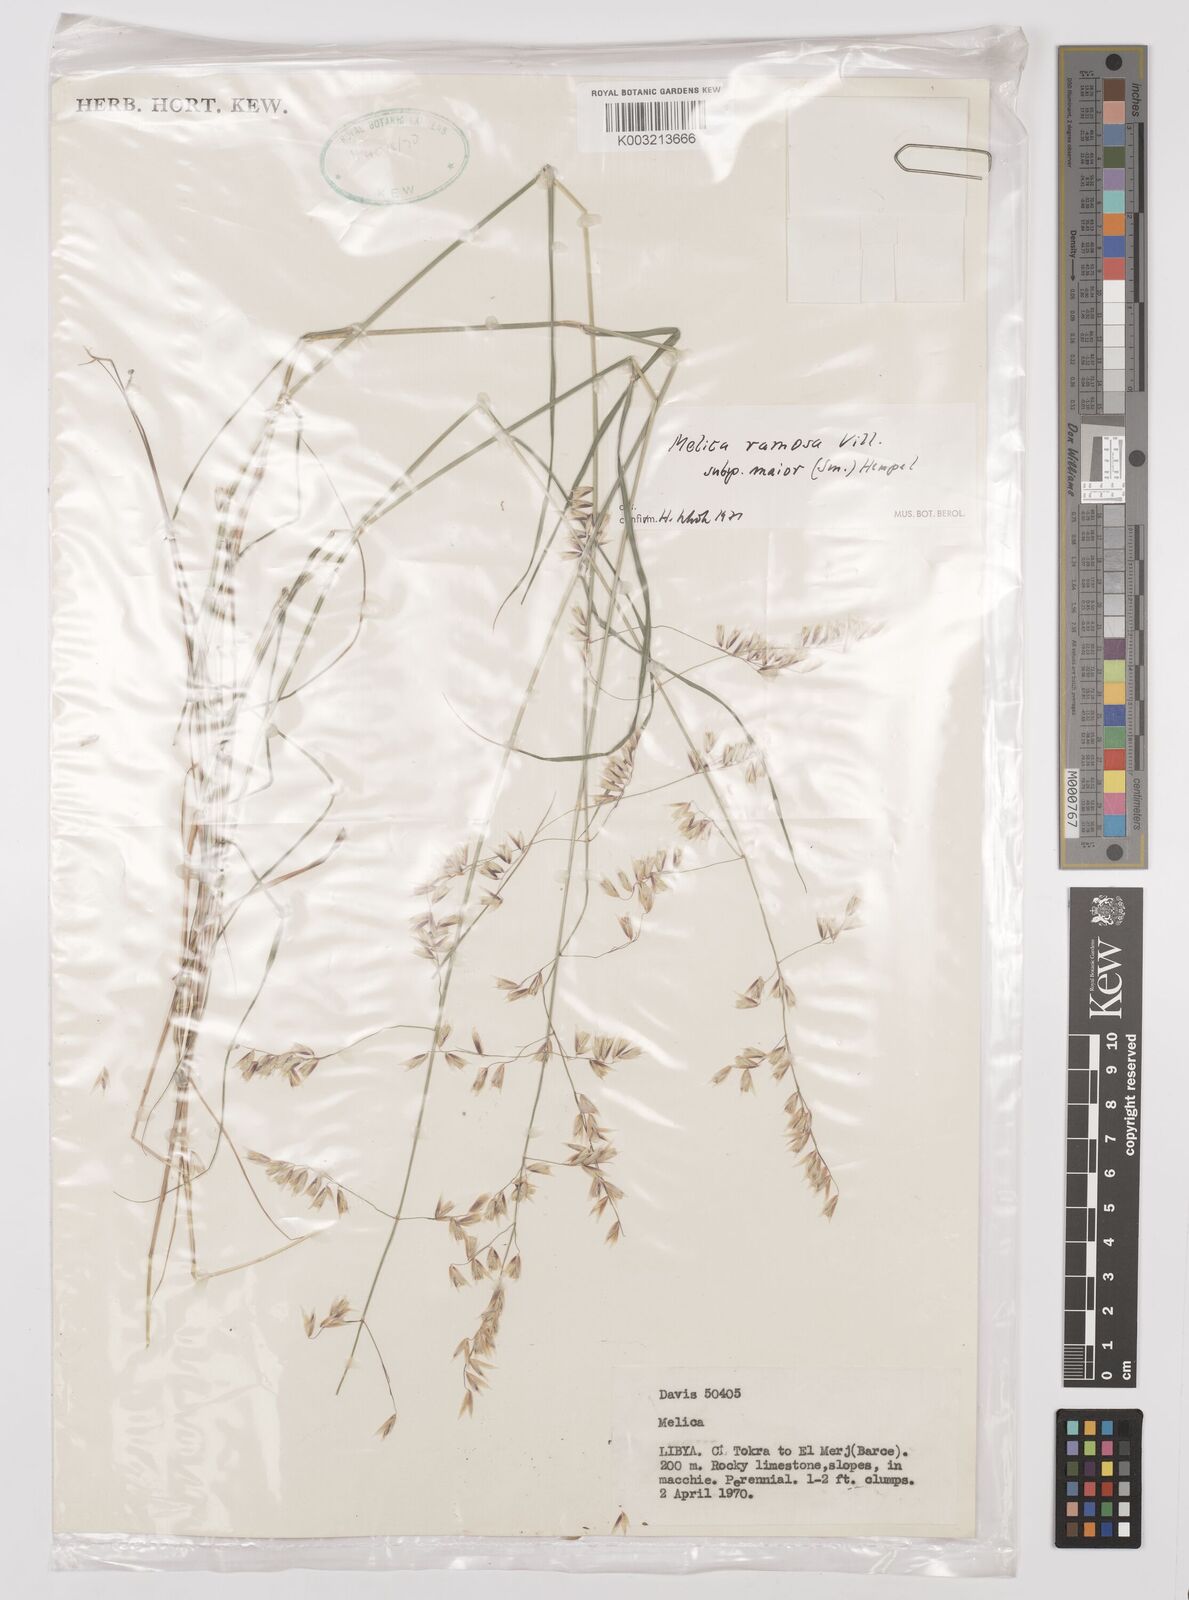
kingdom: Plantae
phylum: Tracheophyta
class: Liliopsida
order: Poales
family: Poaceae
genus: Melica
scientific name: Melica minuta
